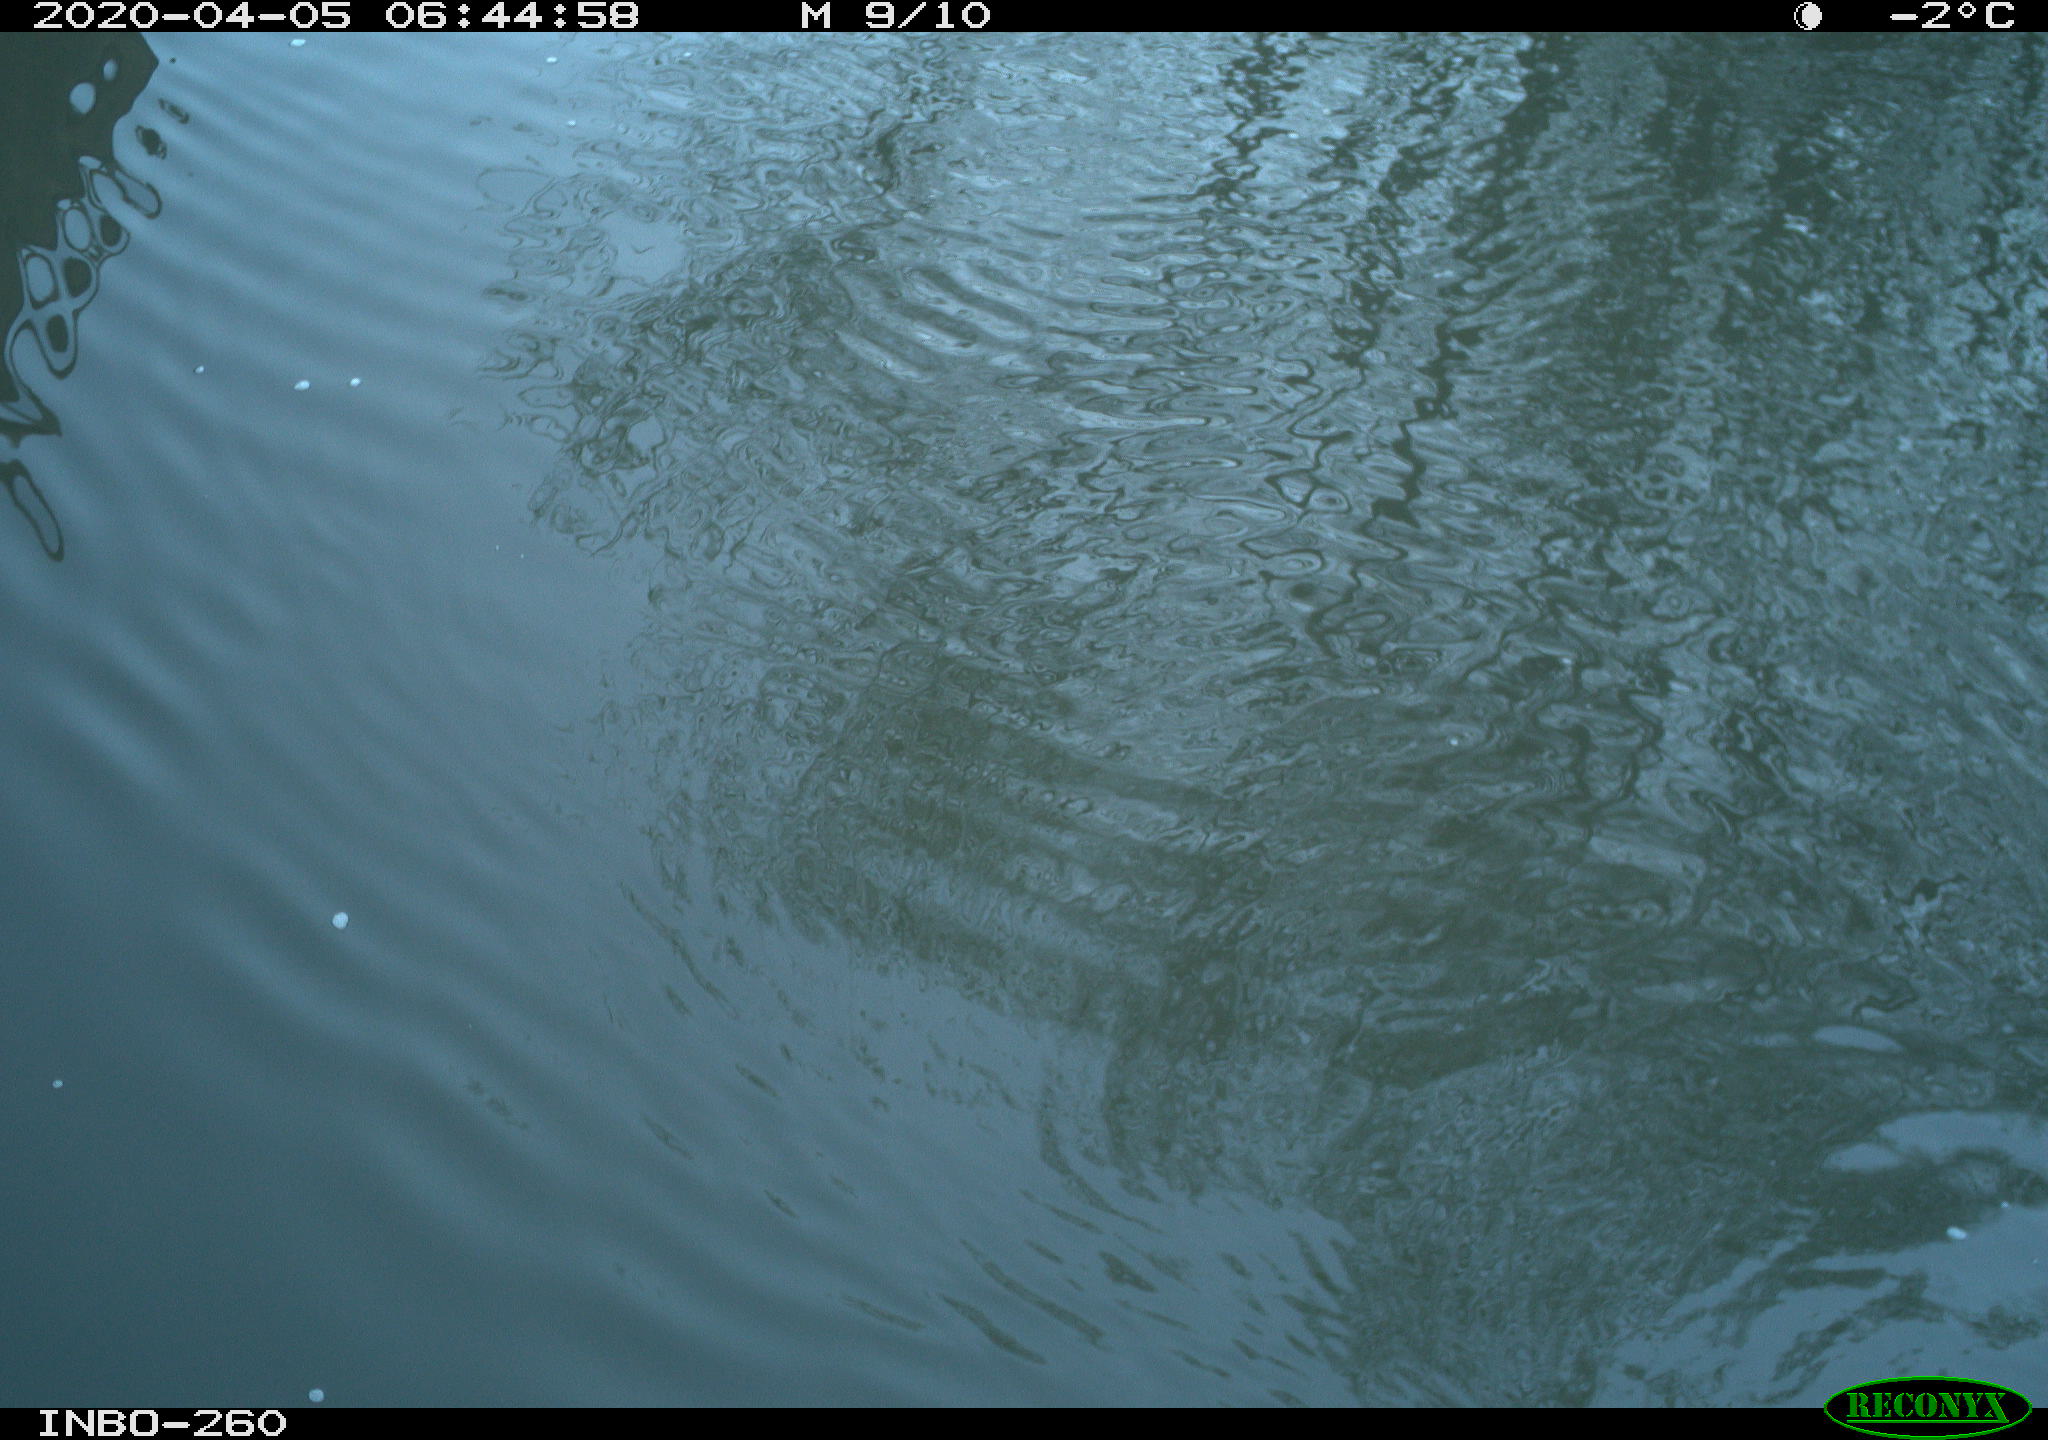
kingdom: Animalia
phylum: Chordata
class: Aves
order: Anseriformes
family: Anatidae
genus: Anas
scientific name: Anas platyrhynchos
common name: Mallard
